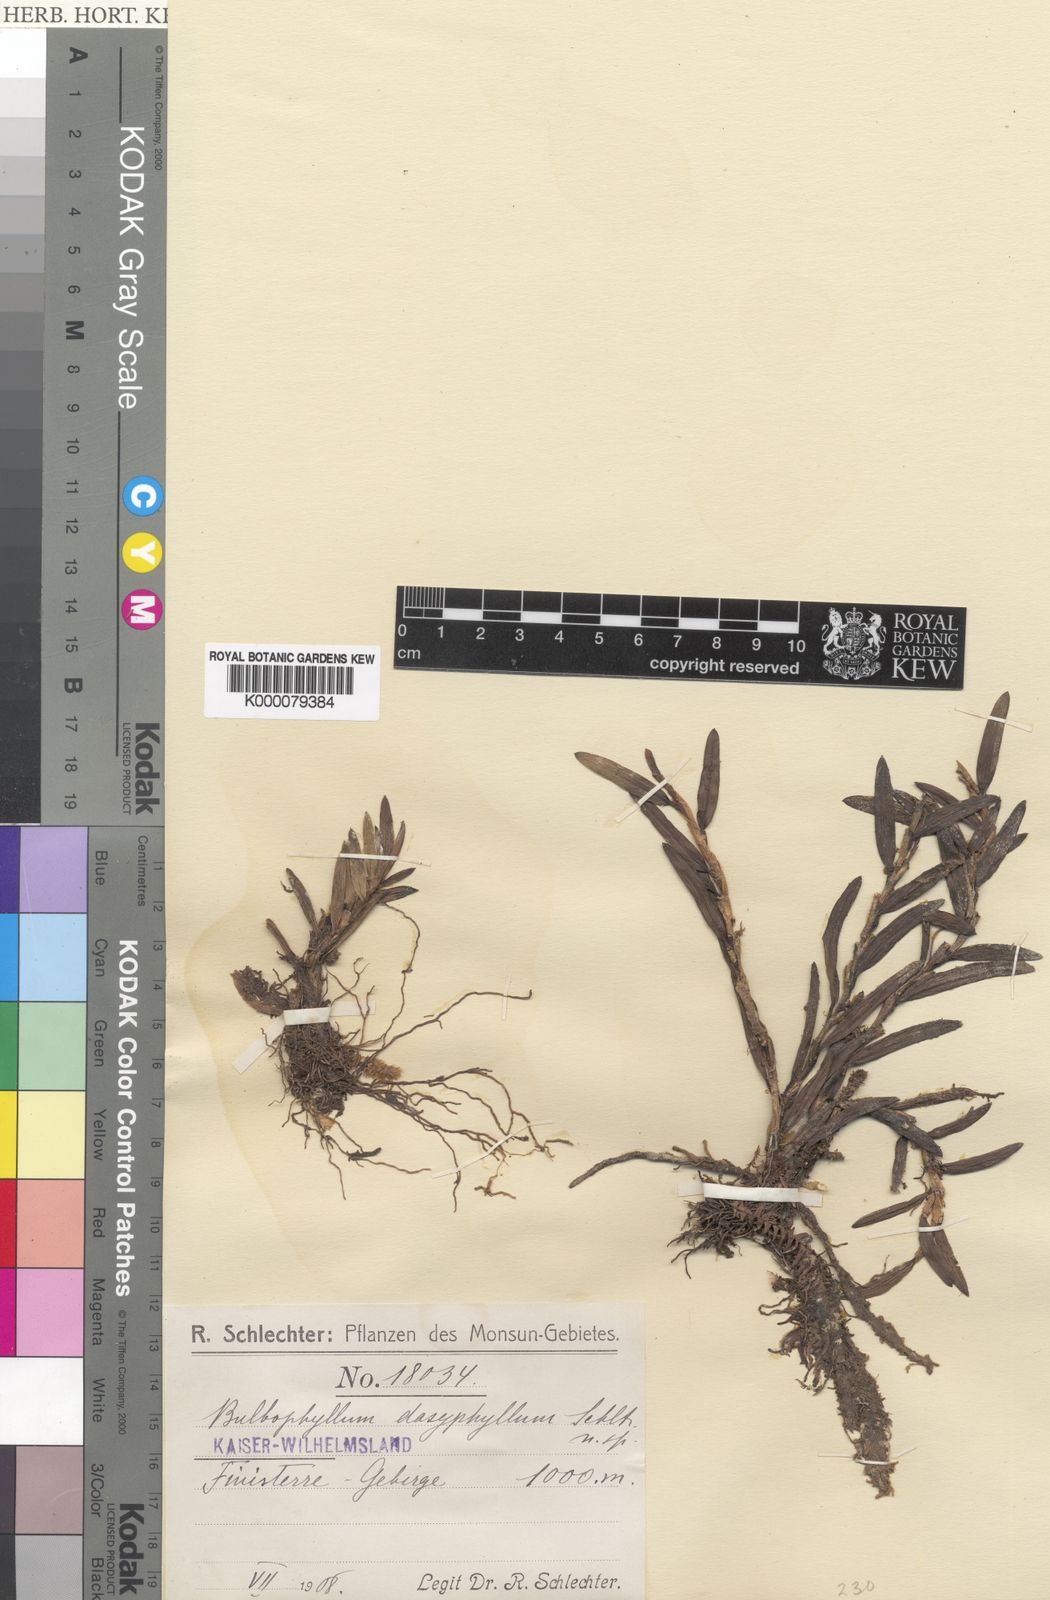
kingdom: Plantae
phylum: Tracheophyta
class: Liliopsida
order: Asparagales
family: Orchidaceae
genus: Bulbophyllum
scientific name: Bulbophyllum betchei
